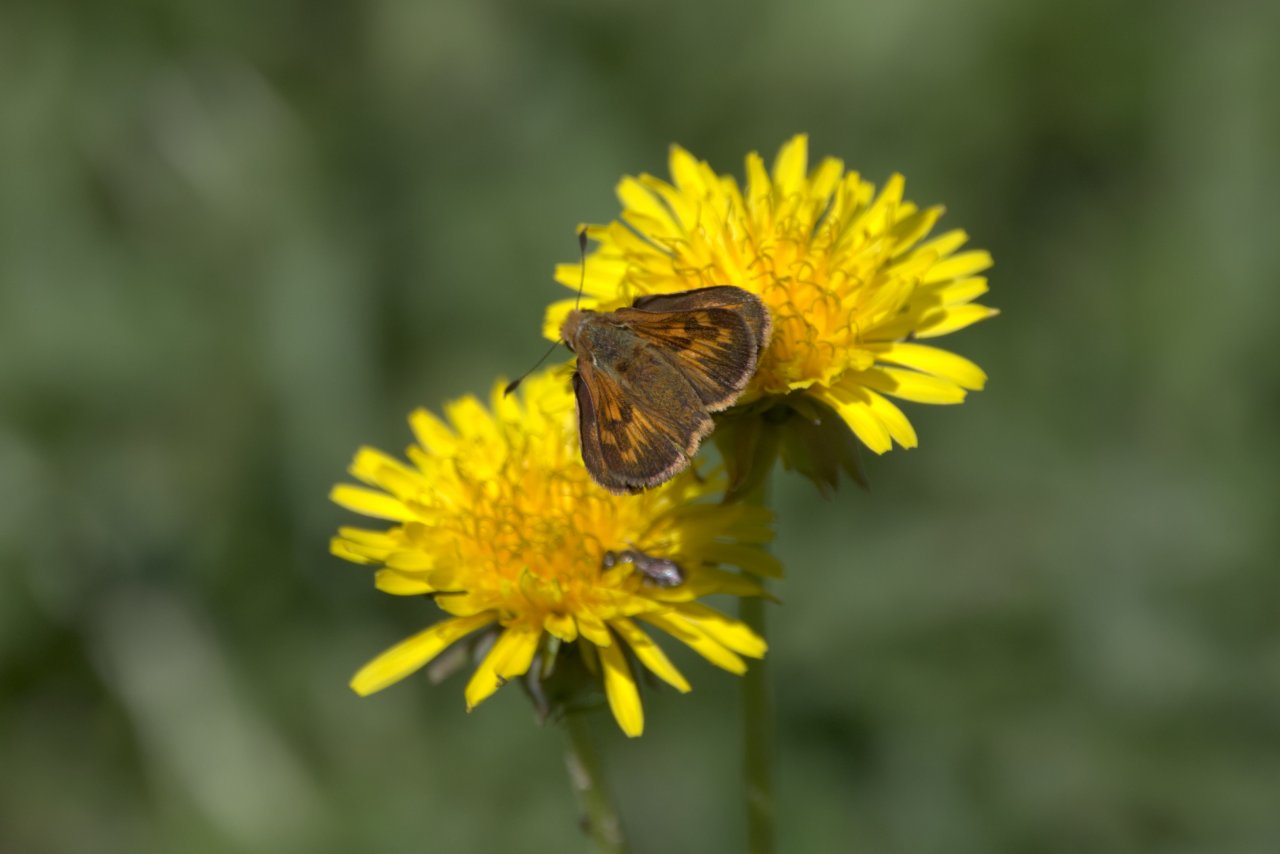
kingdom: Animalia
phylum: Arthropoda
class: Insecta
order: Lepidoptera
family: Hesperiidae
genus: Ochlodes
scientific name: Ochlodes sylvanoides
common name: Woodland Skipper
